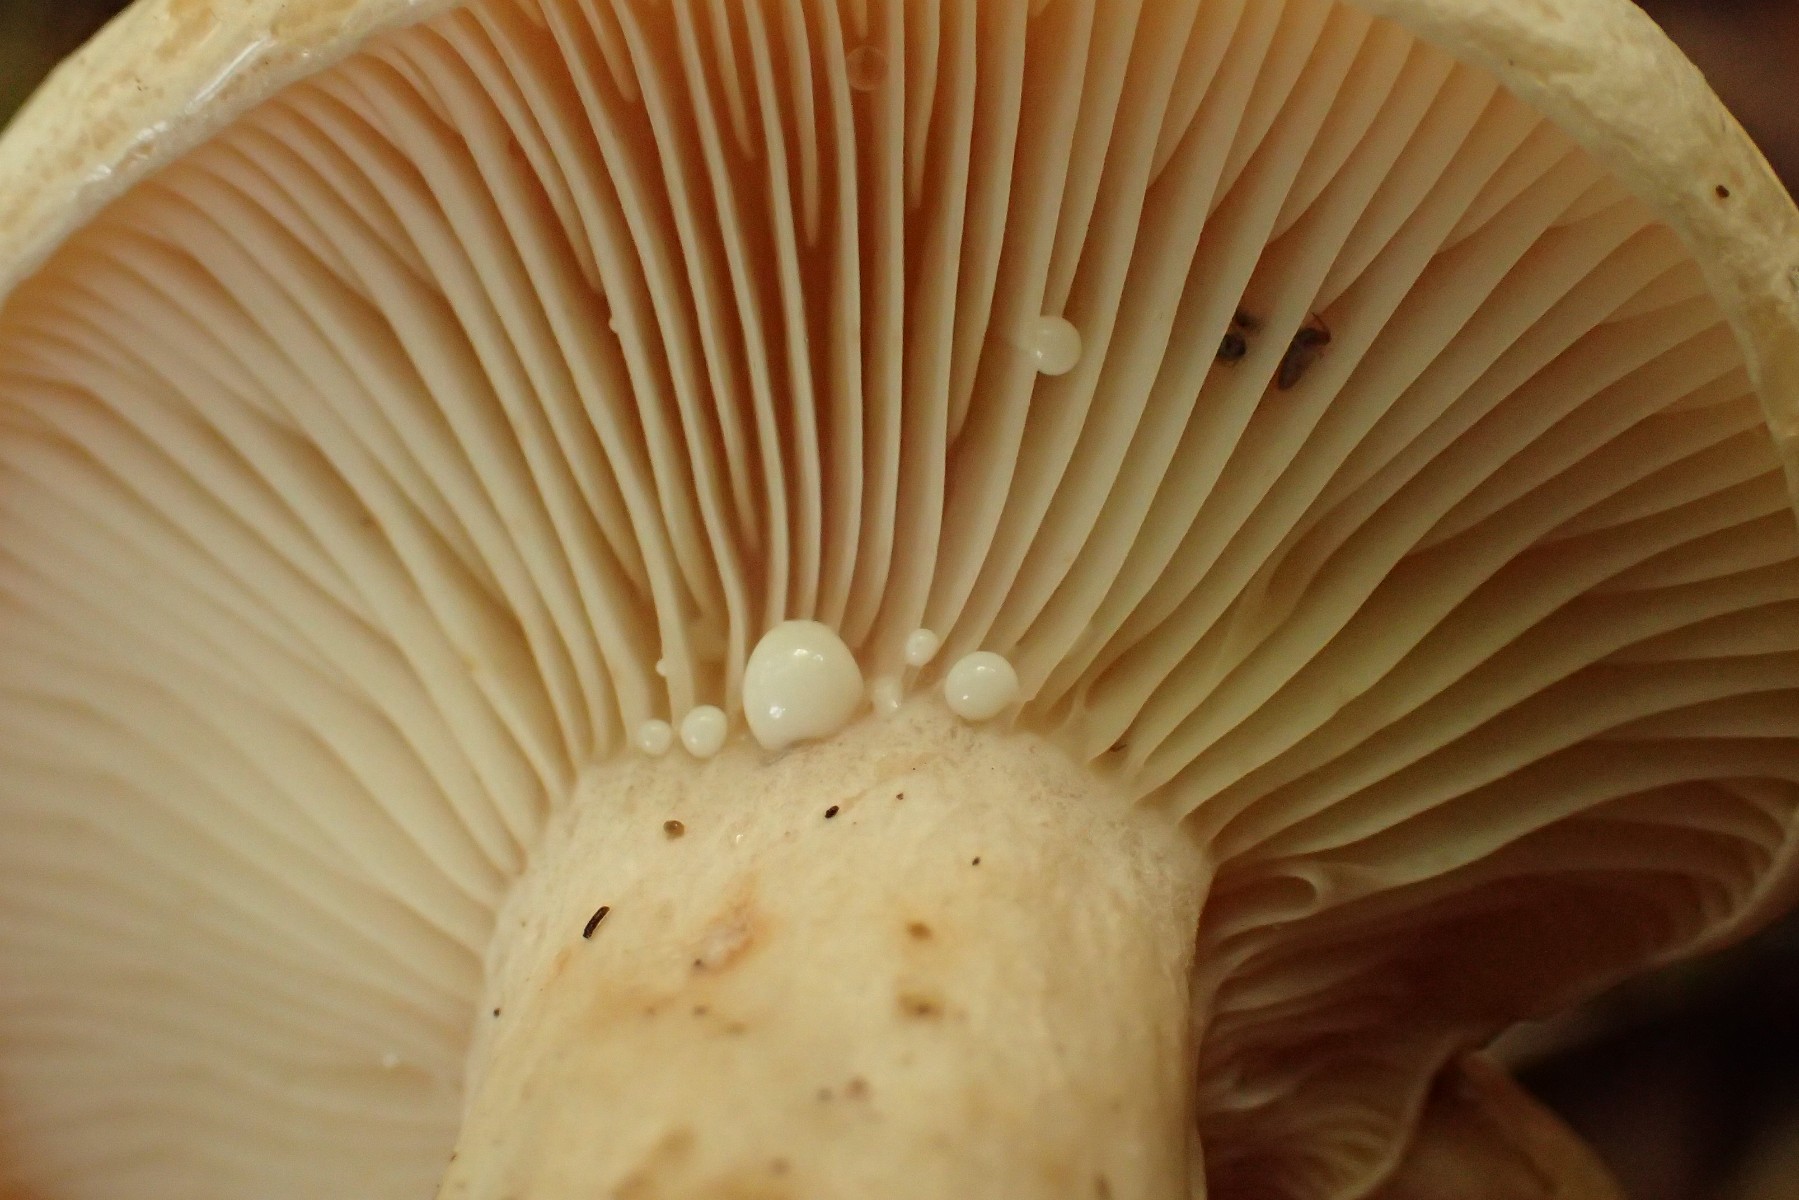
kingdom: Fungi
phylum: Basidiomycota
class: Agaricomycetes
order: Russulales
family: Russulaceae
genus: Lactarius
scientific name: Lactarius pallidus
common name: bleg mælkehat
